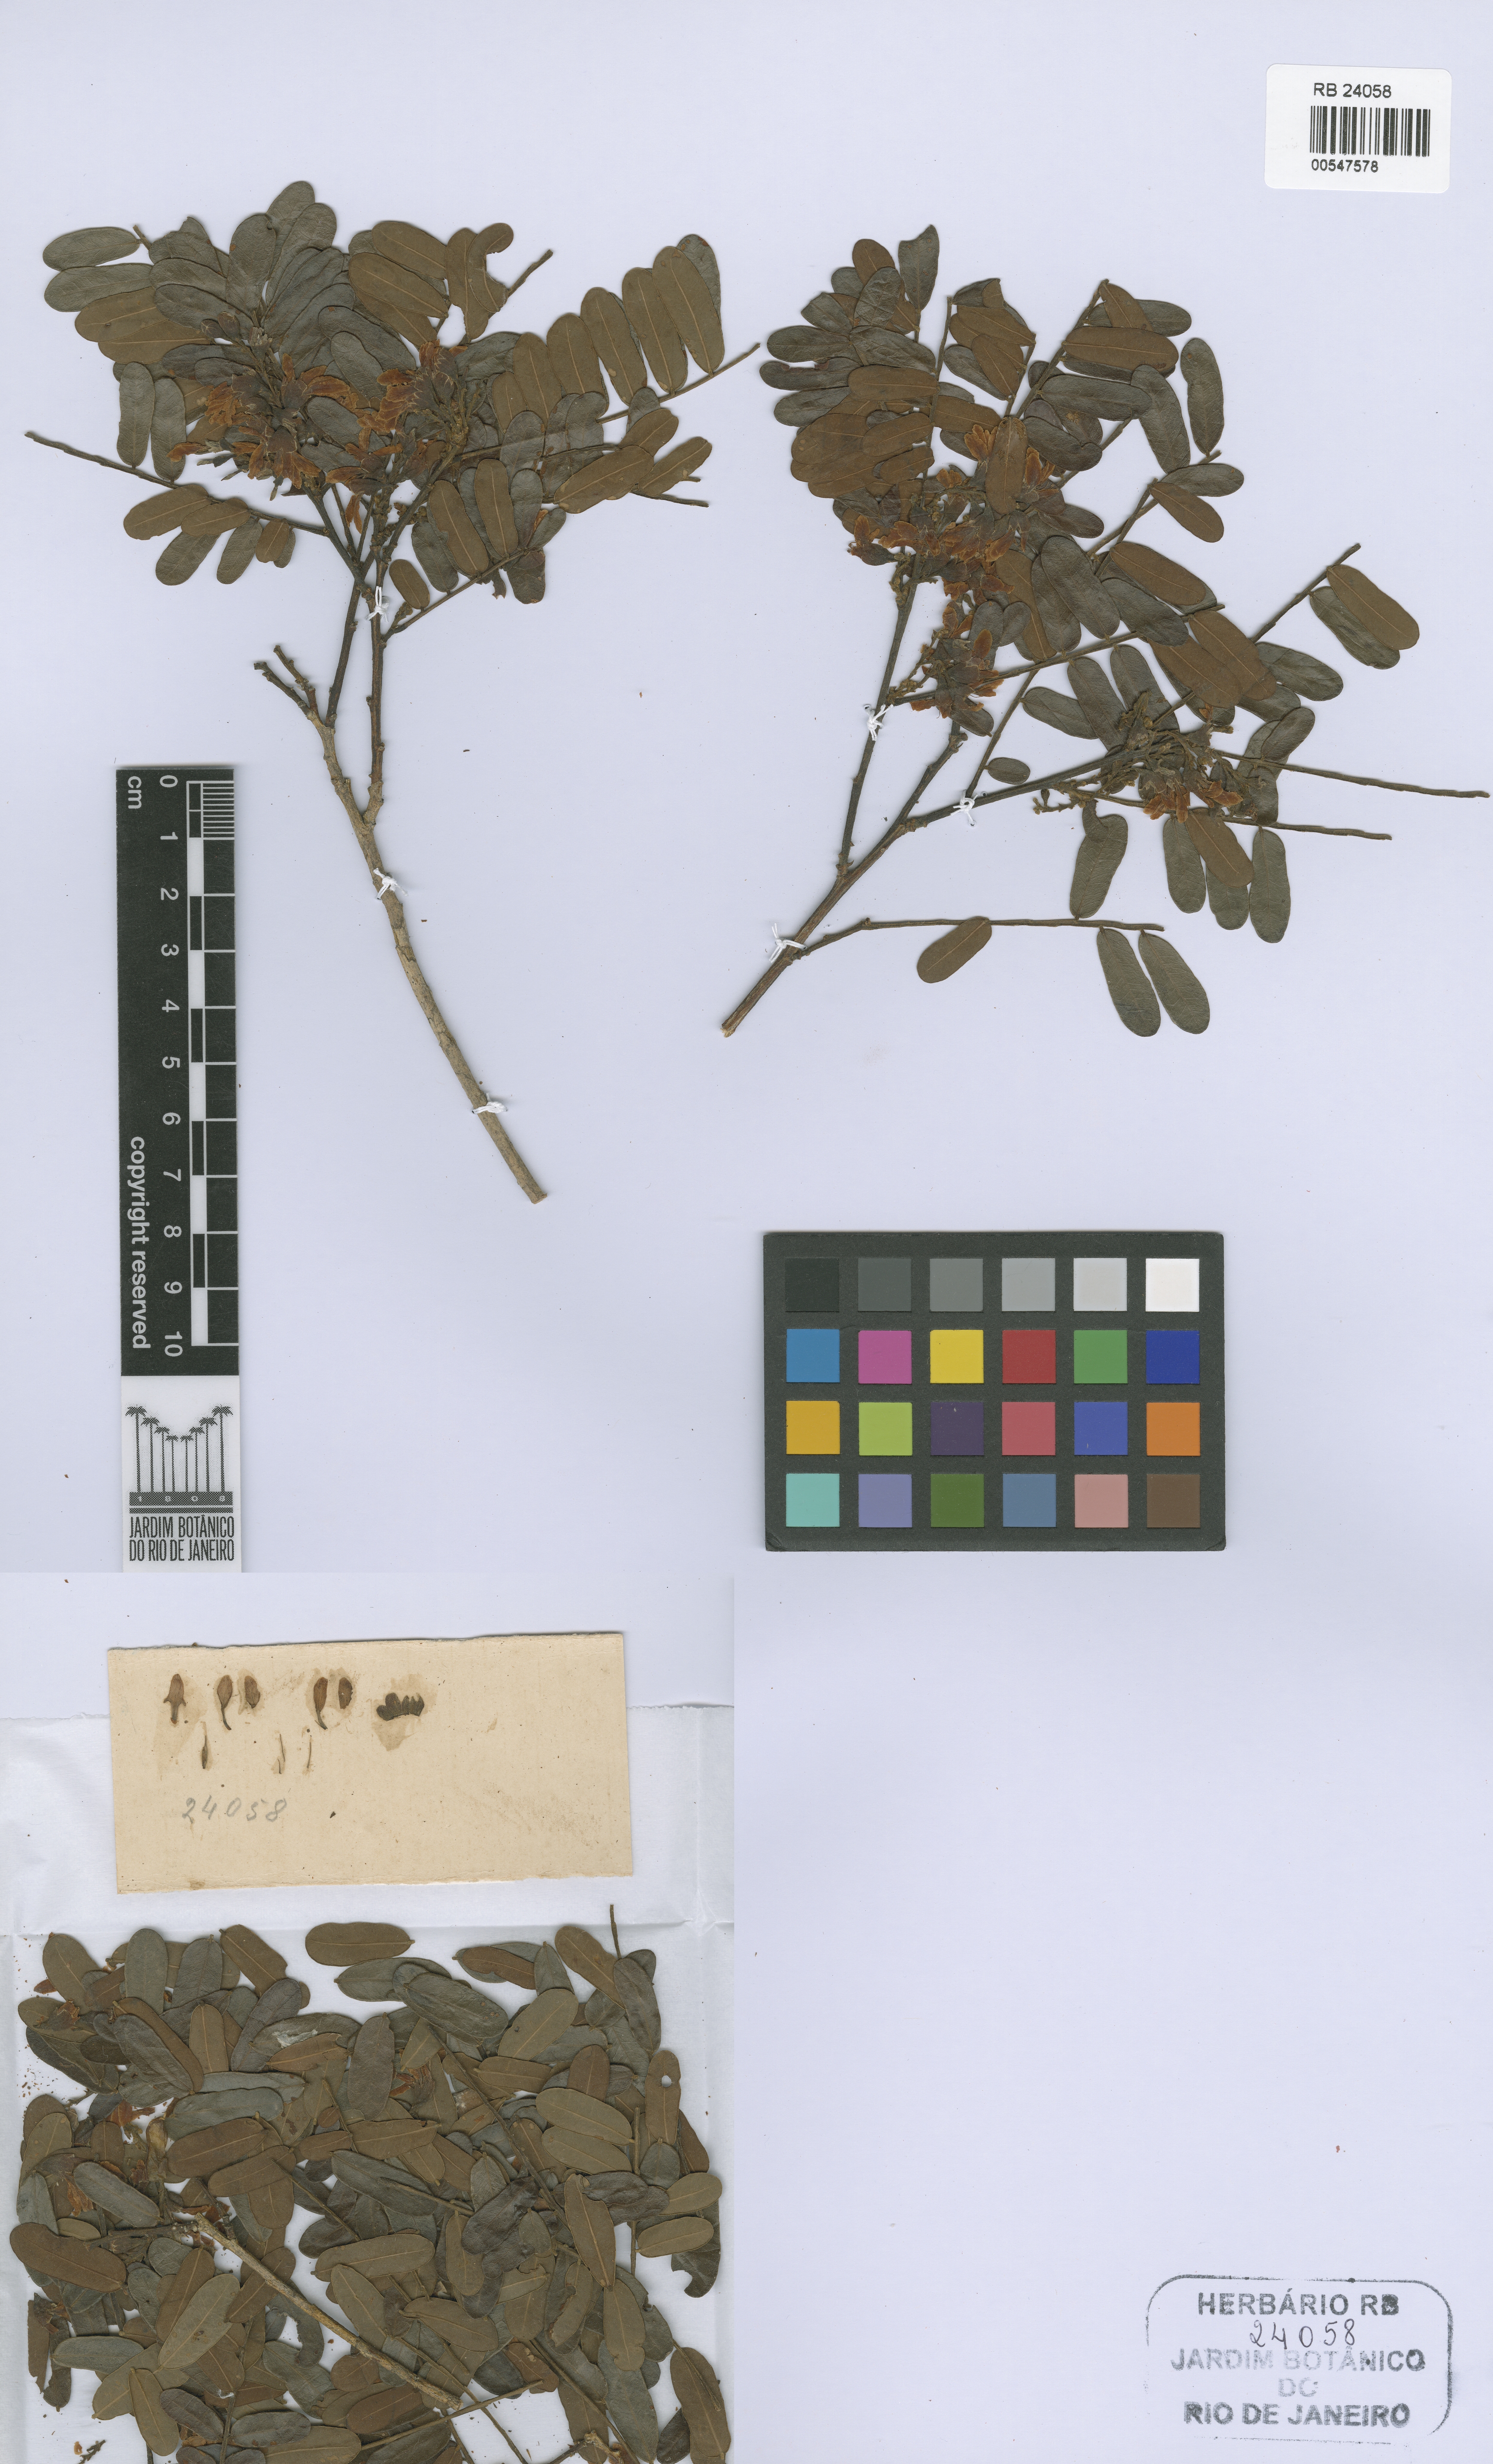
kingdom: Plantae
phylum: Tracheophyta
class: Magnoliopsida
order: Fabales
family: Fabaceae
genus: Staminodianthus
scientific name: Staminodianthus duckei
